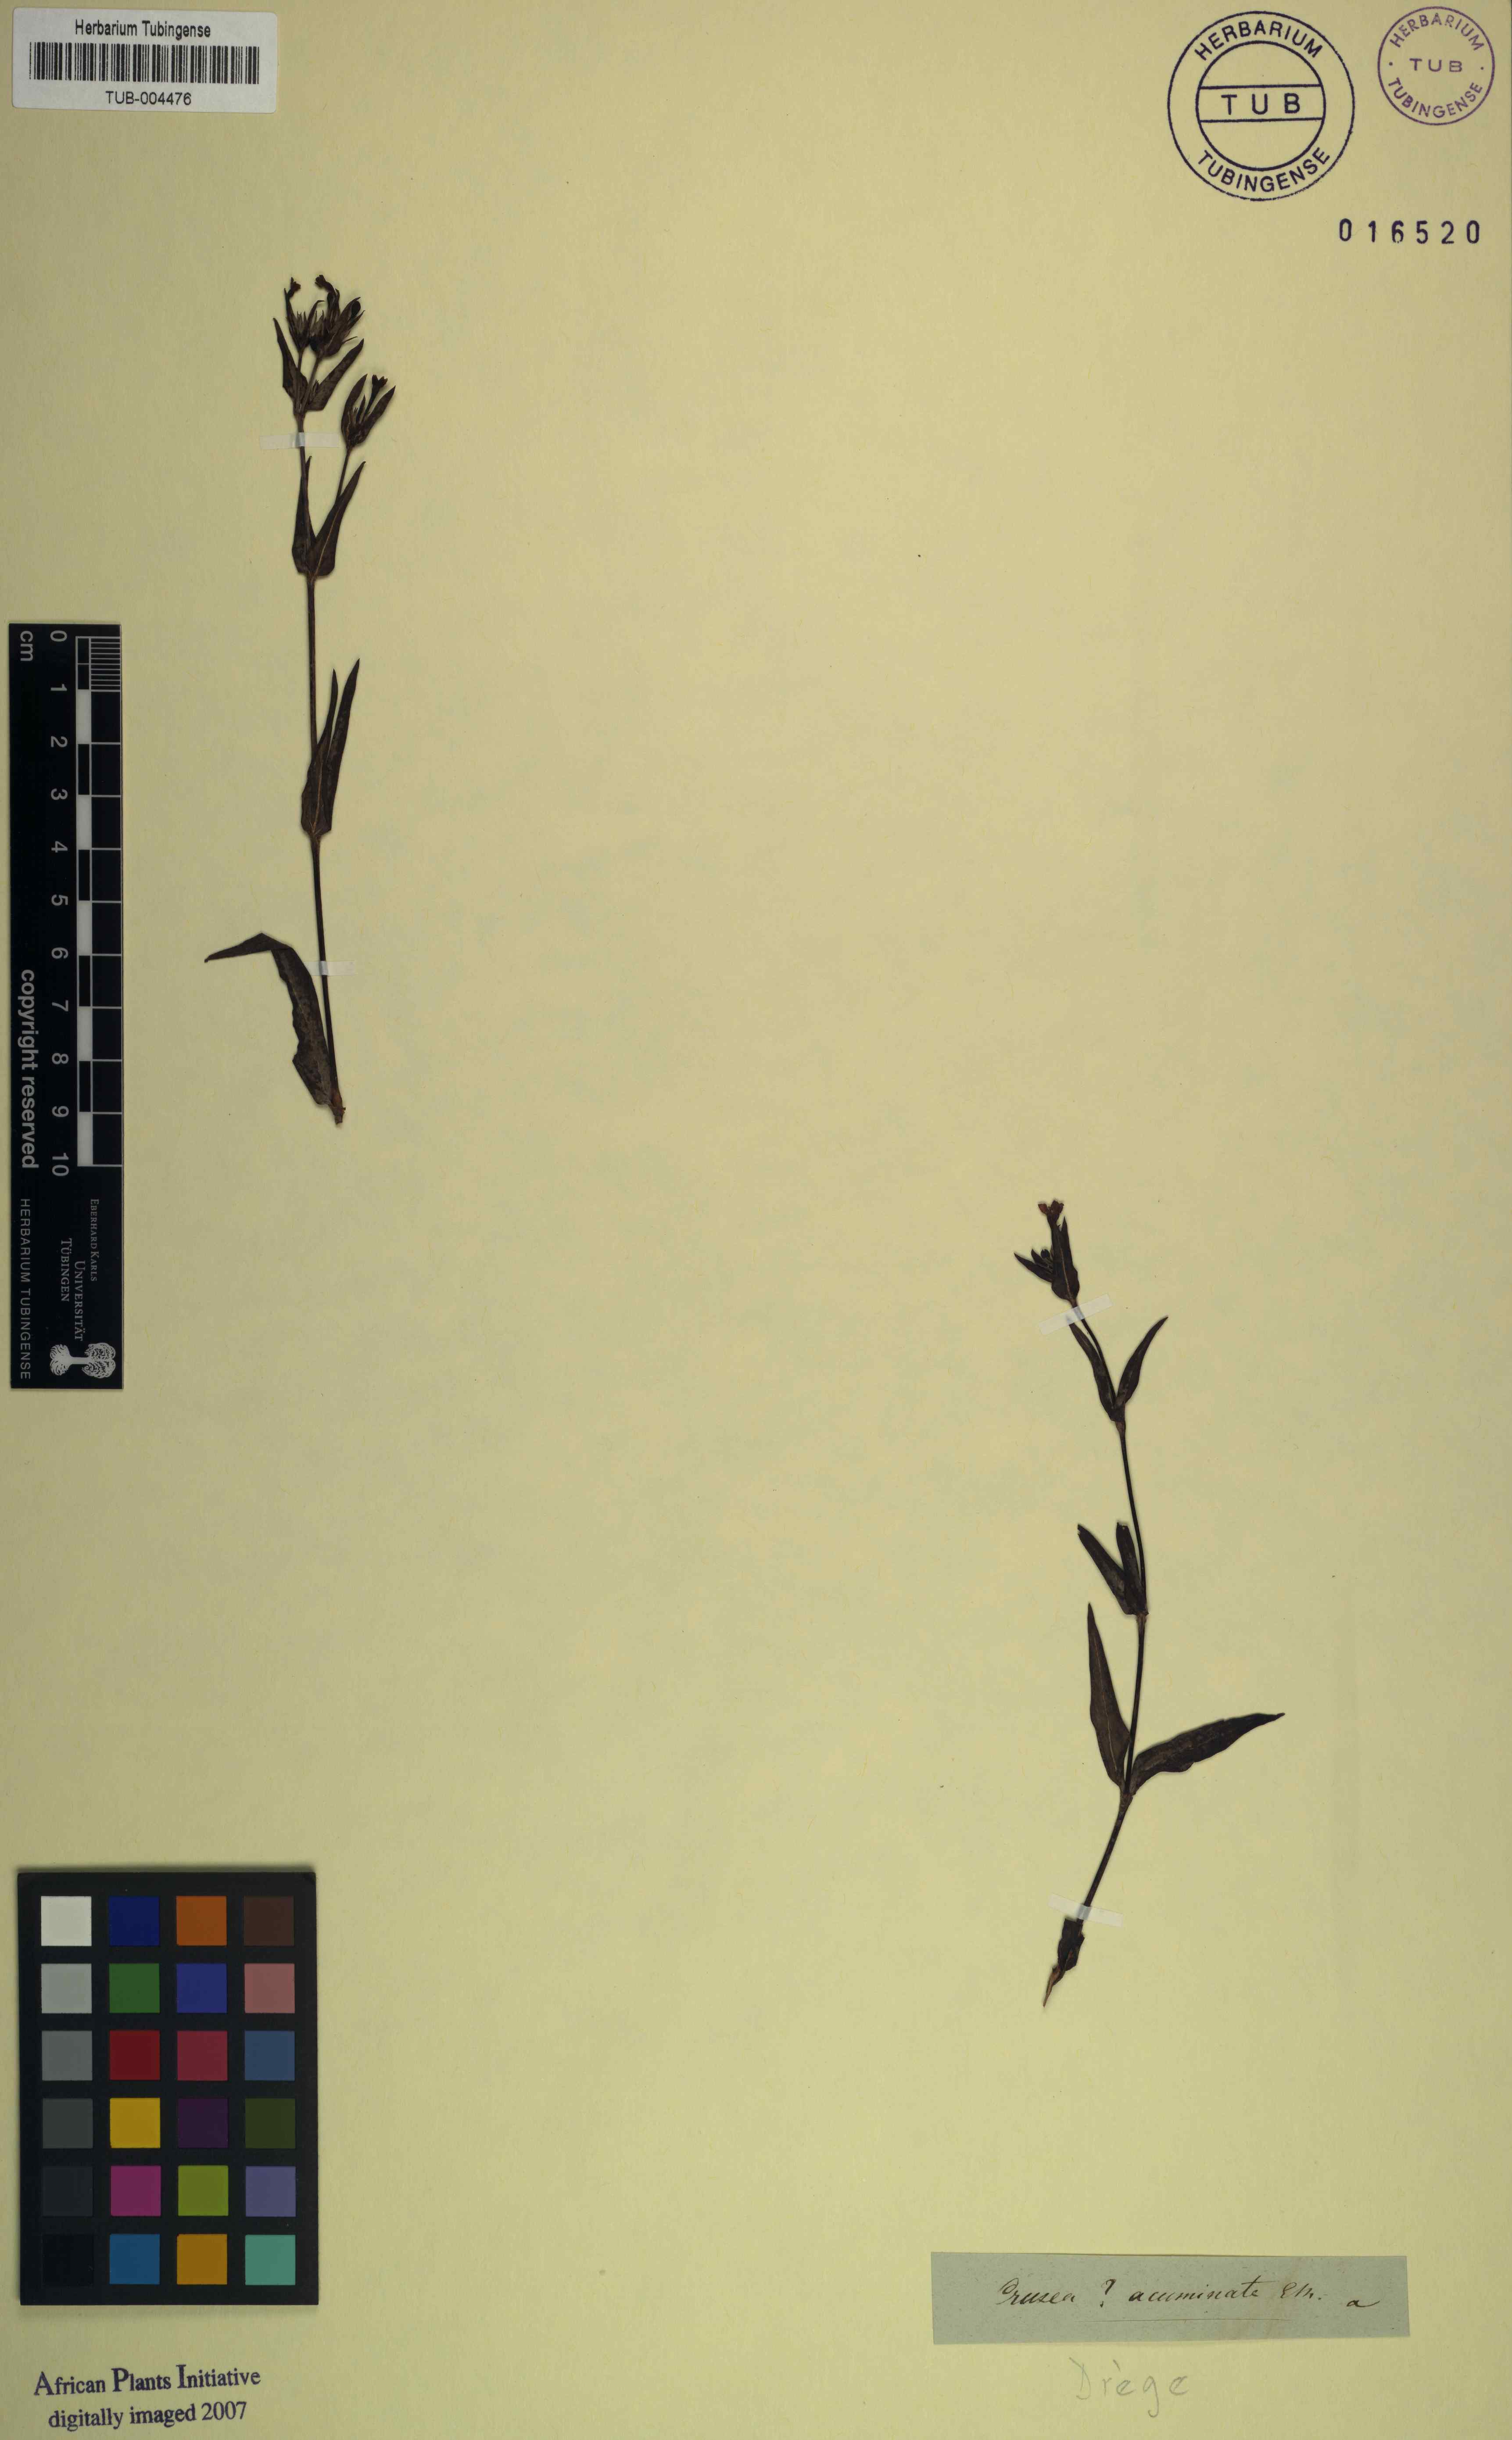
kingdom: Plantae
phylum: Tracheophyta
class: Magnoliopsida
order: Gentianales
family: Rubiaceae
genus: Conostomium
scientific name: Conostomium natalense
